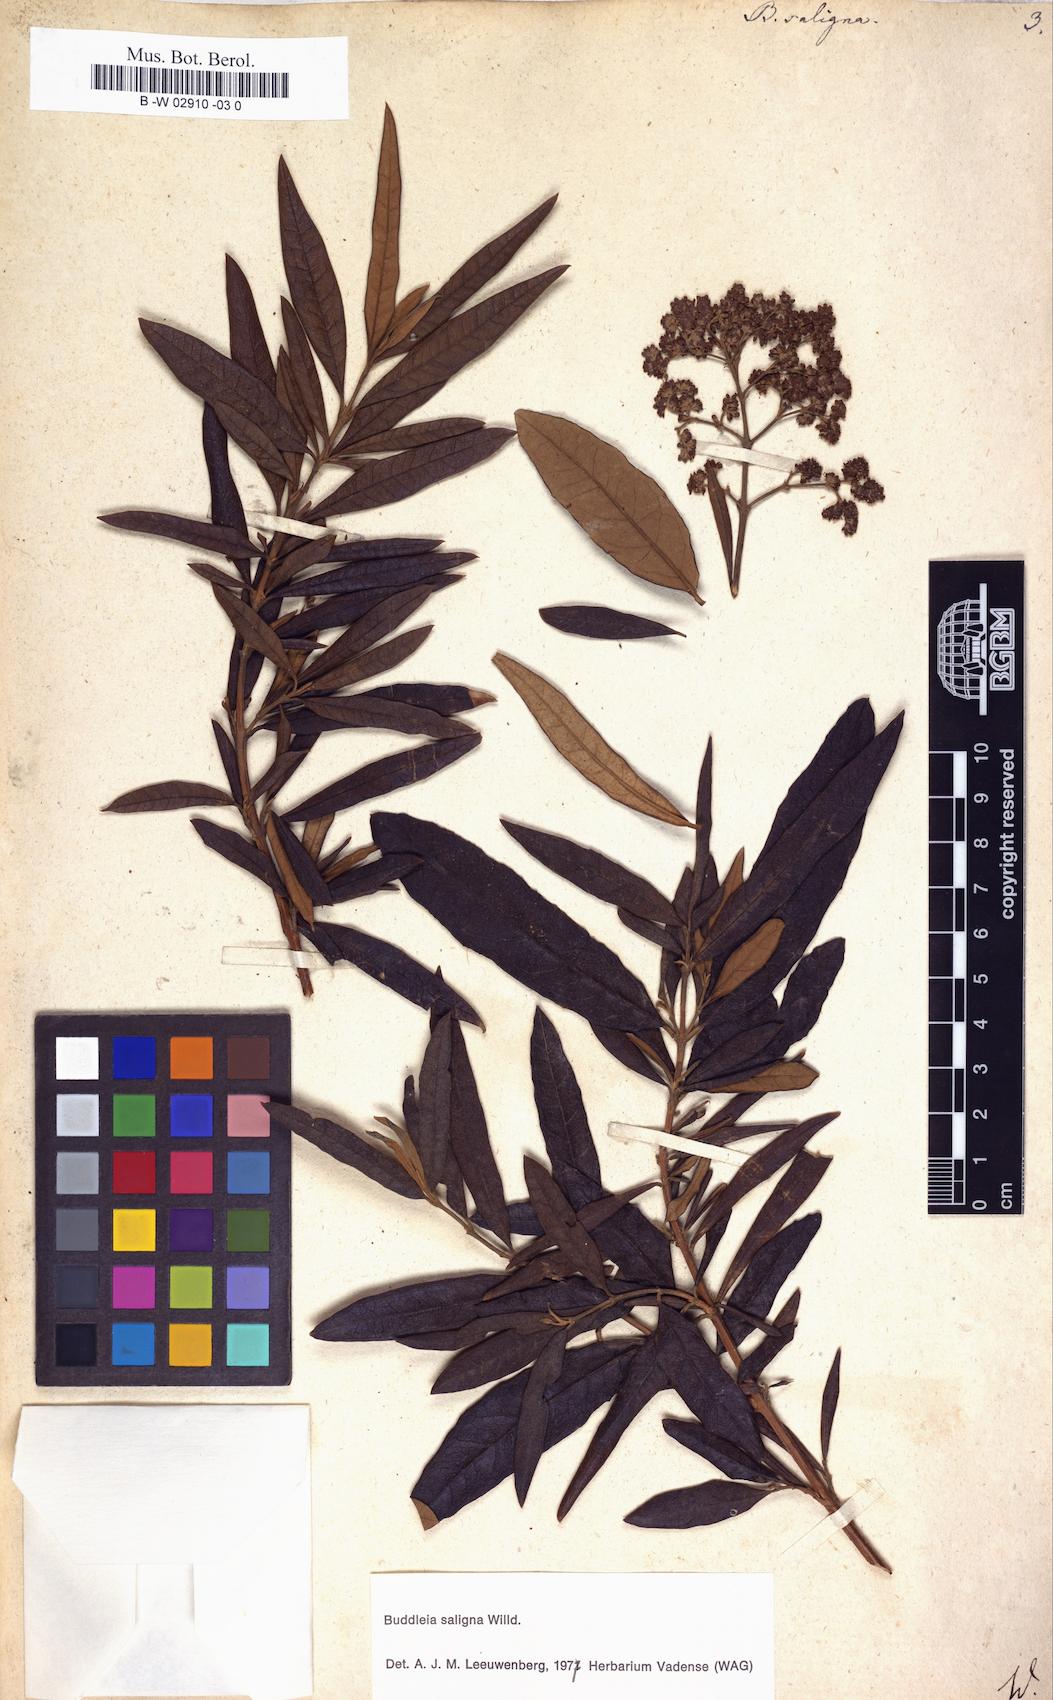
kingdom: Plantae
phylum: Tracheophyta
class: Magnoliopsida
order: Lamiales
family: Scrophulariaceae
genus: Buddleja
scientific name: Buddleja saligna
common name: False olive
